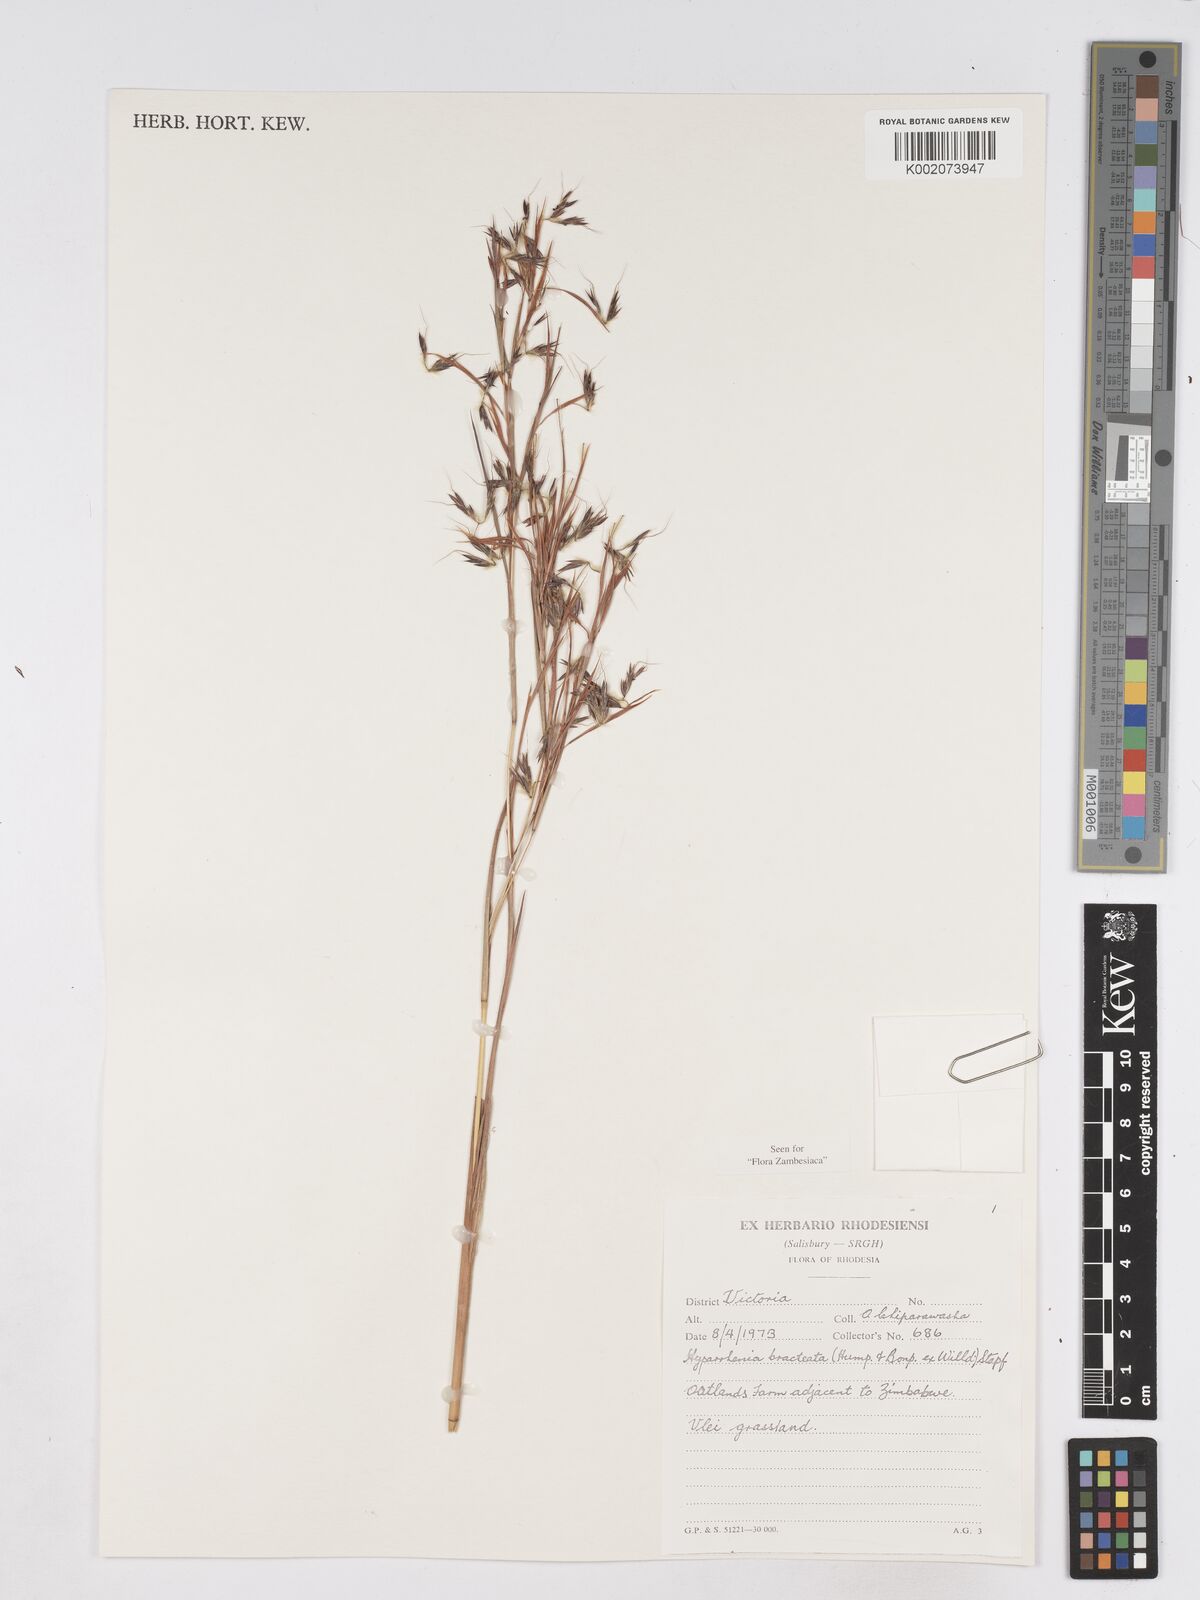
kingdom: Plantae
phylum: Tracheophyta
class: Liliopsida
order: Poales
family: Poaceae
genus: Hyparrhenia
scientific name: Hyparrhenia bracteata
